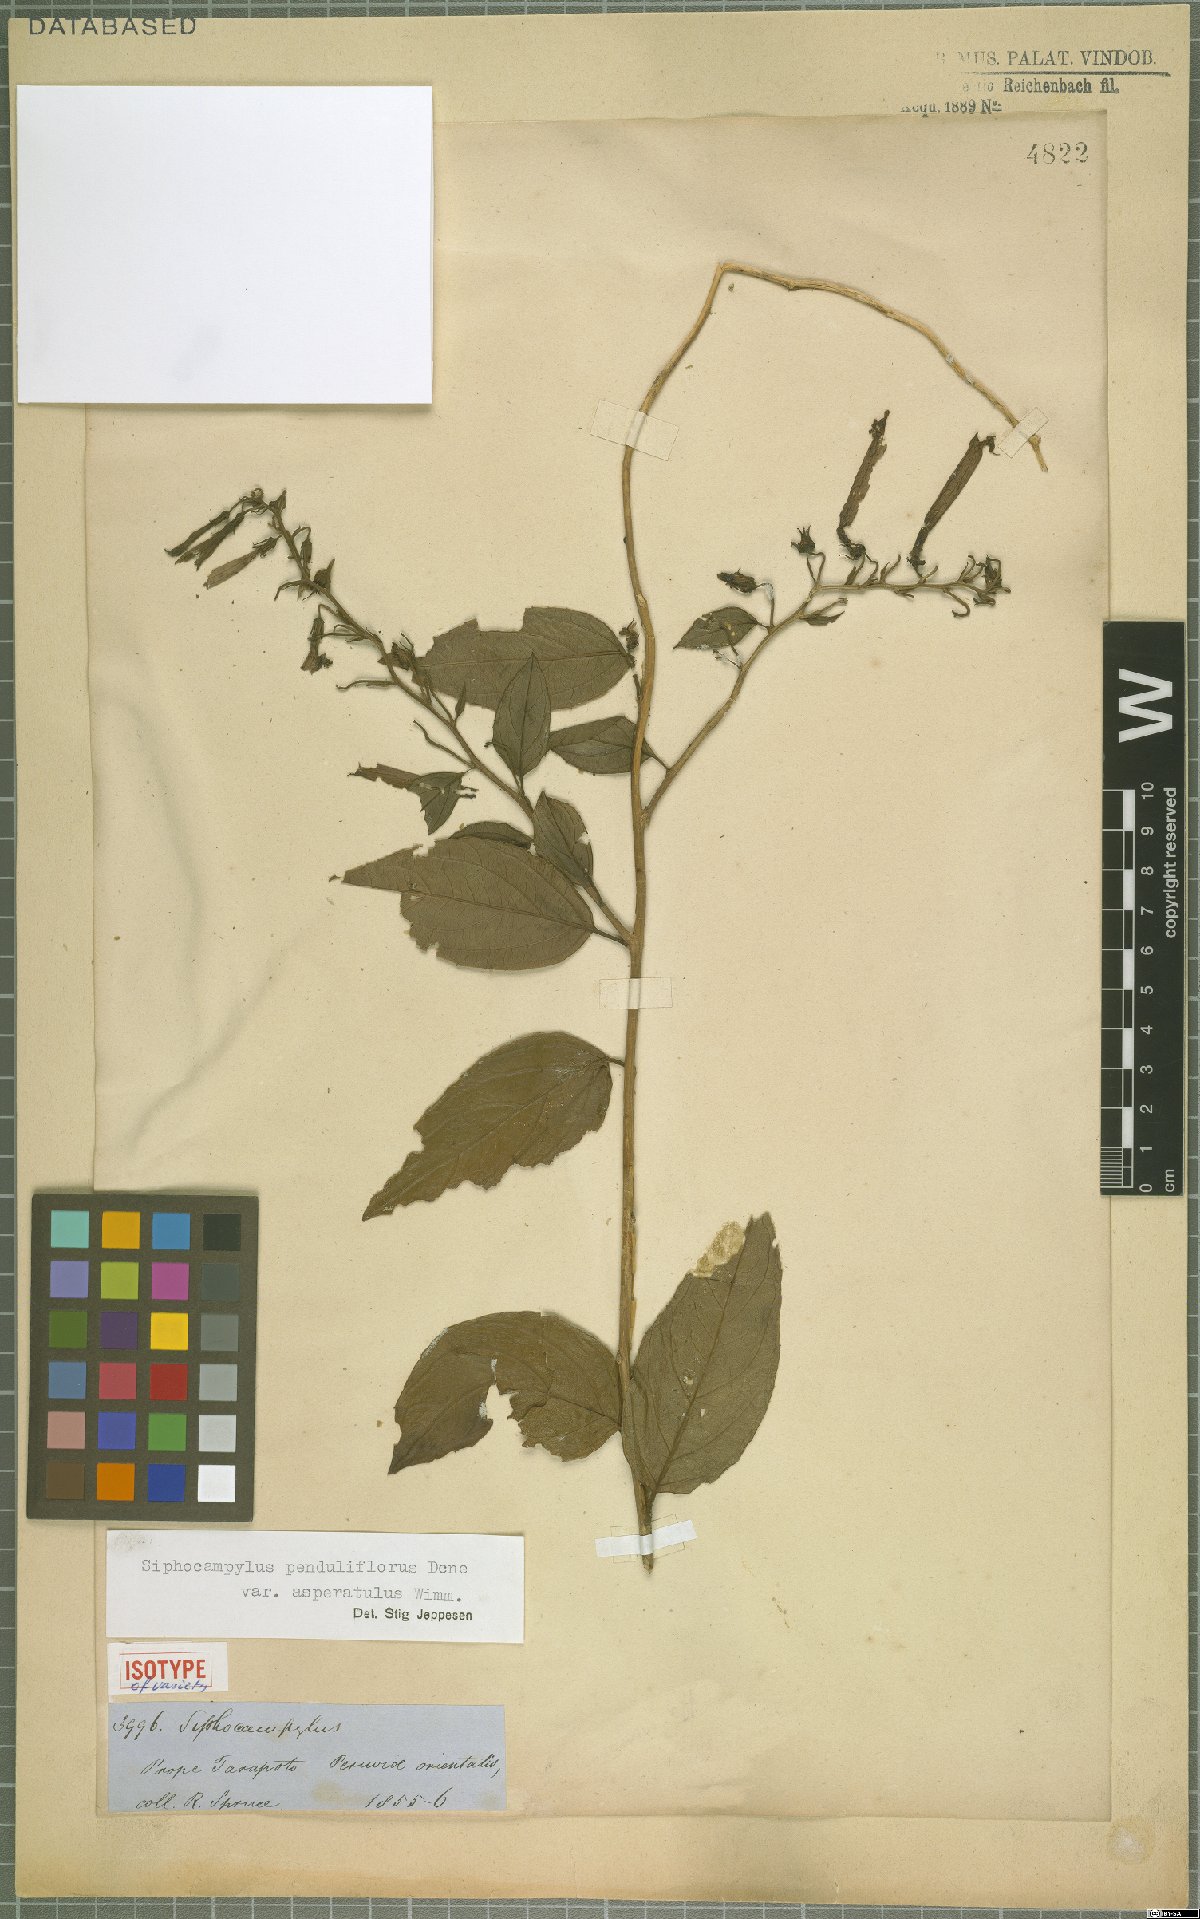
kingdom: Plantae
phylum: Tracheophyta
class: Magnoliopsida
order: Asterales
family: Campanulaceae
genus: Siphocampylus
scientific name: Siphocampylus penduliflorus
